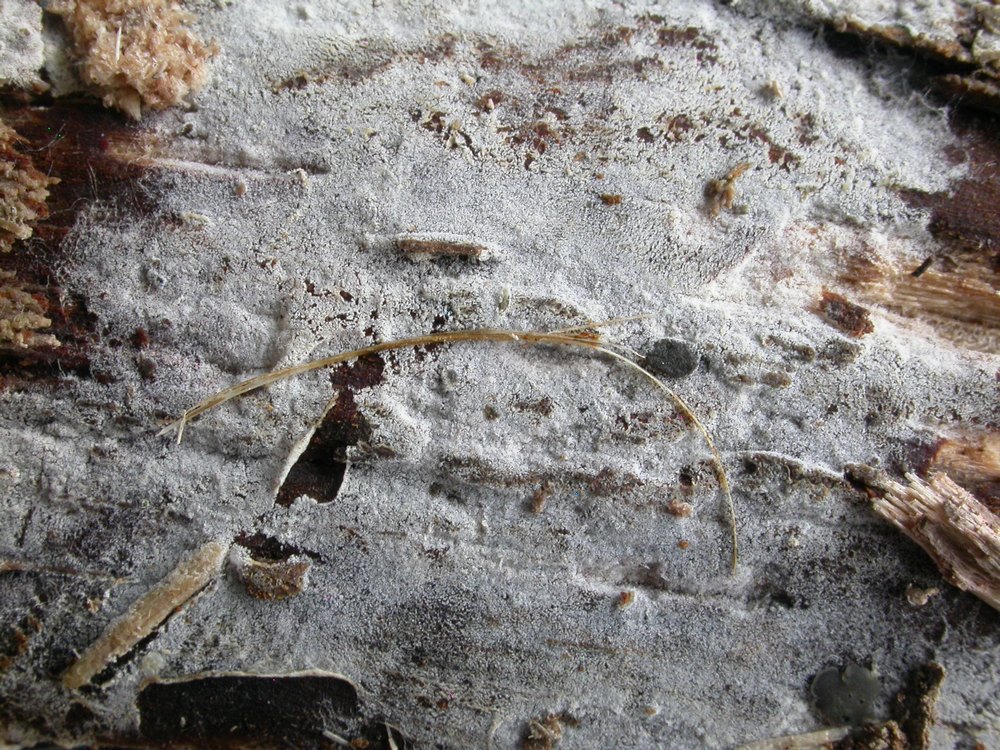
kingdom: Fungi
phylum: Basidiomycota
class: Agaricomycetes
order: Cantharellales
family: Botryobasidiaceae
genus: Botryobasidium
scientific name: Botryobasidium subcoronatum
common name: almindelig spindhinde
